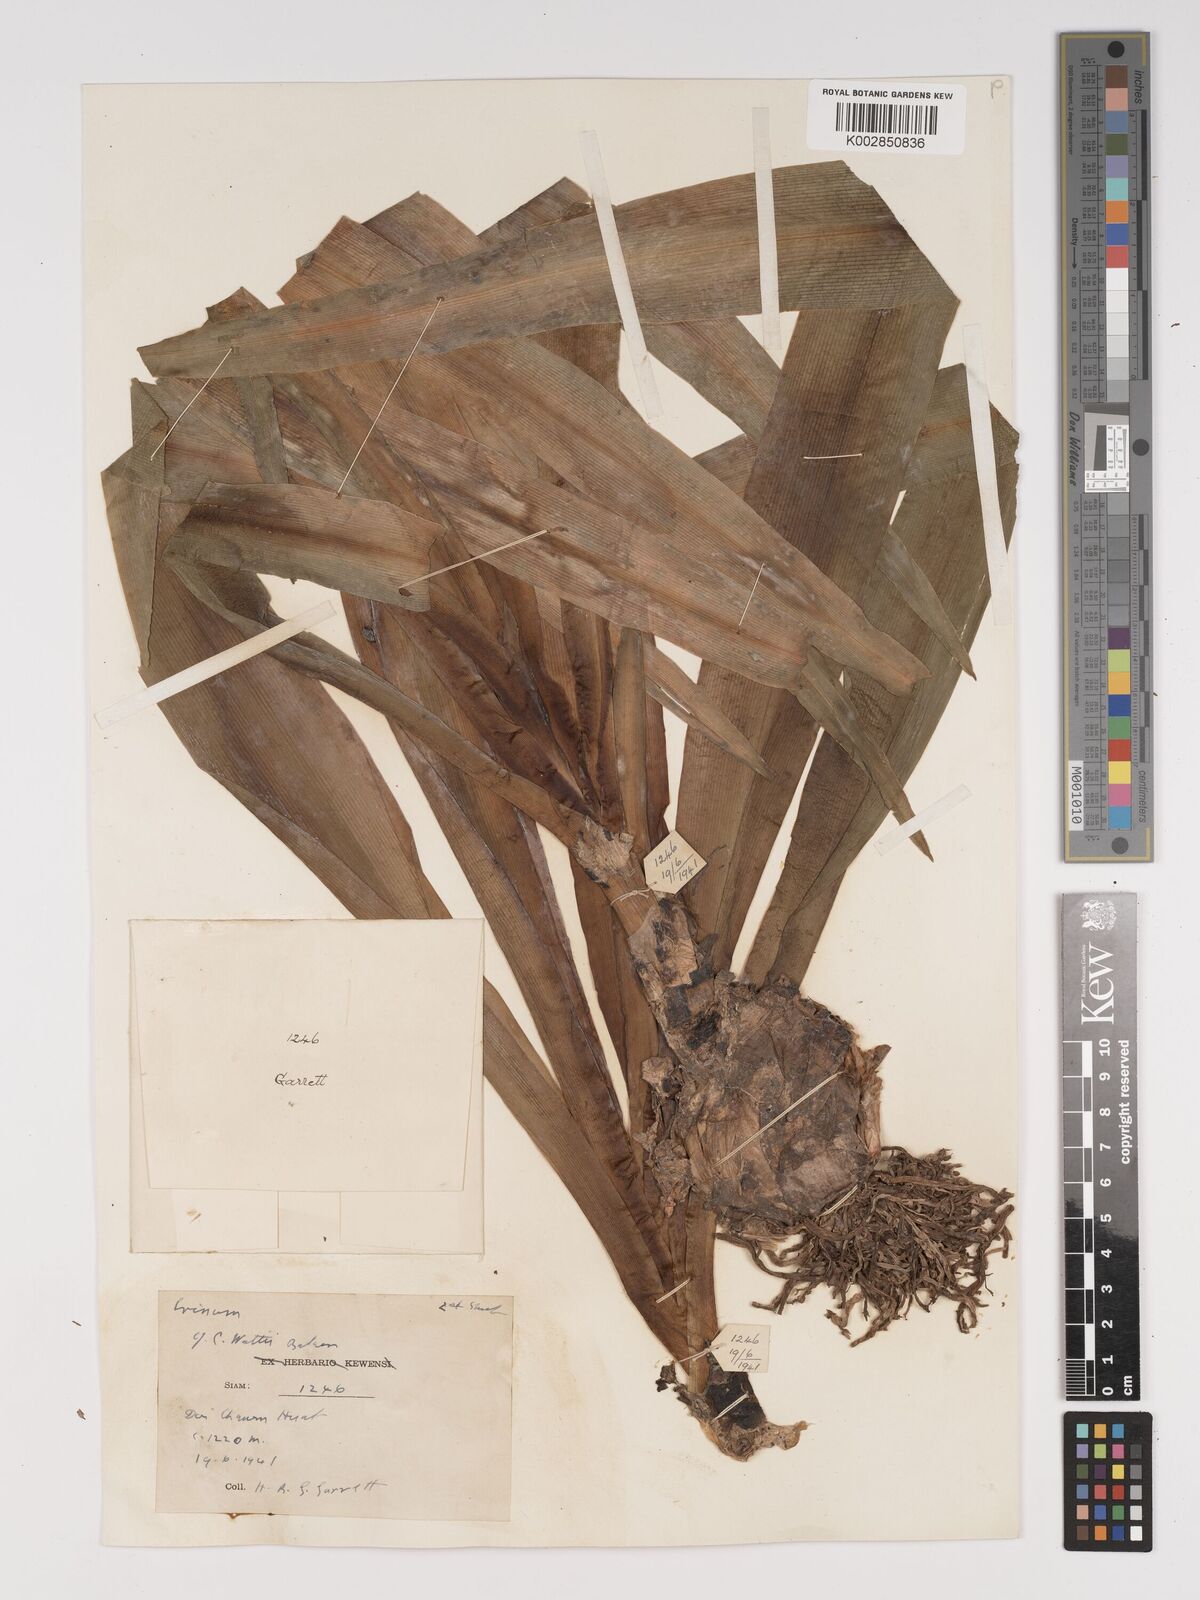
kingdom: Plantae
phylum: Tracheophyta
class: Liliopsida
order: Asparagales
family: Amaryllidaceae
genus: Crinum
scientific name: Crinum wattii
